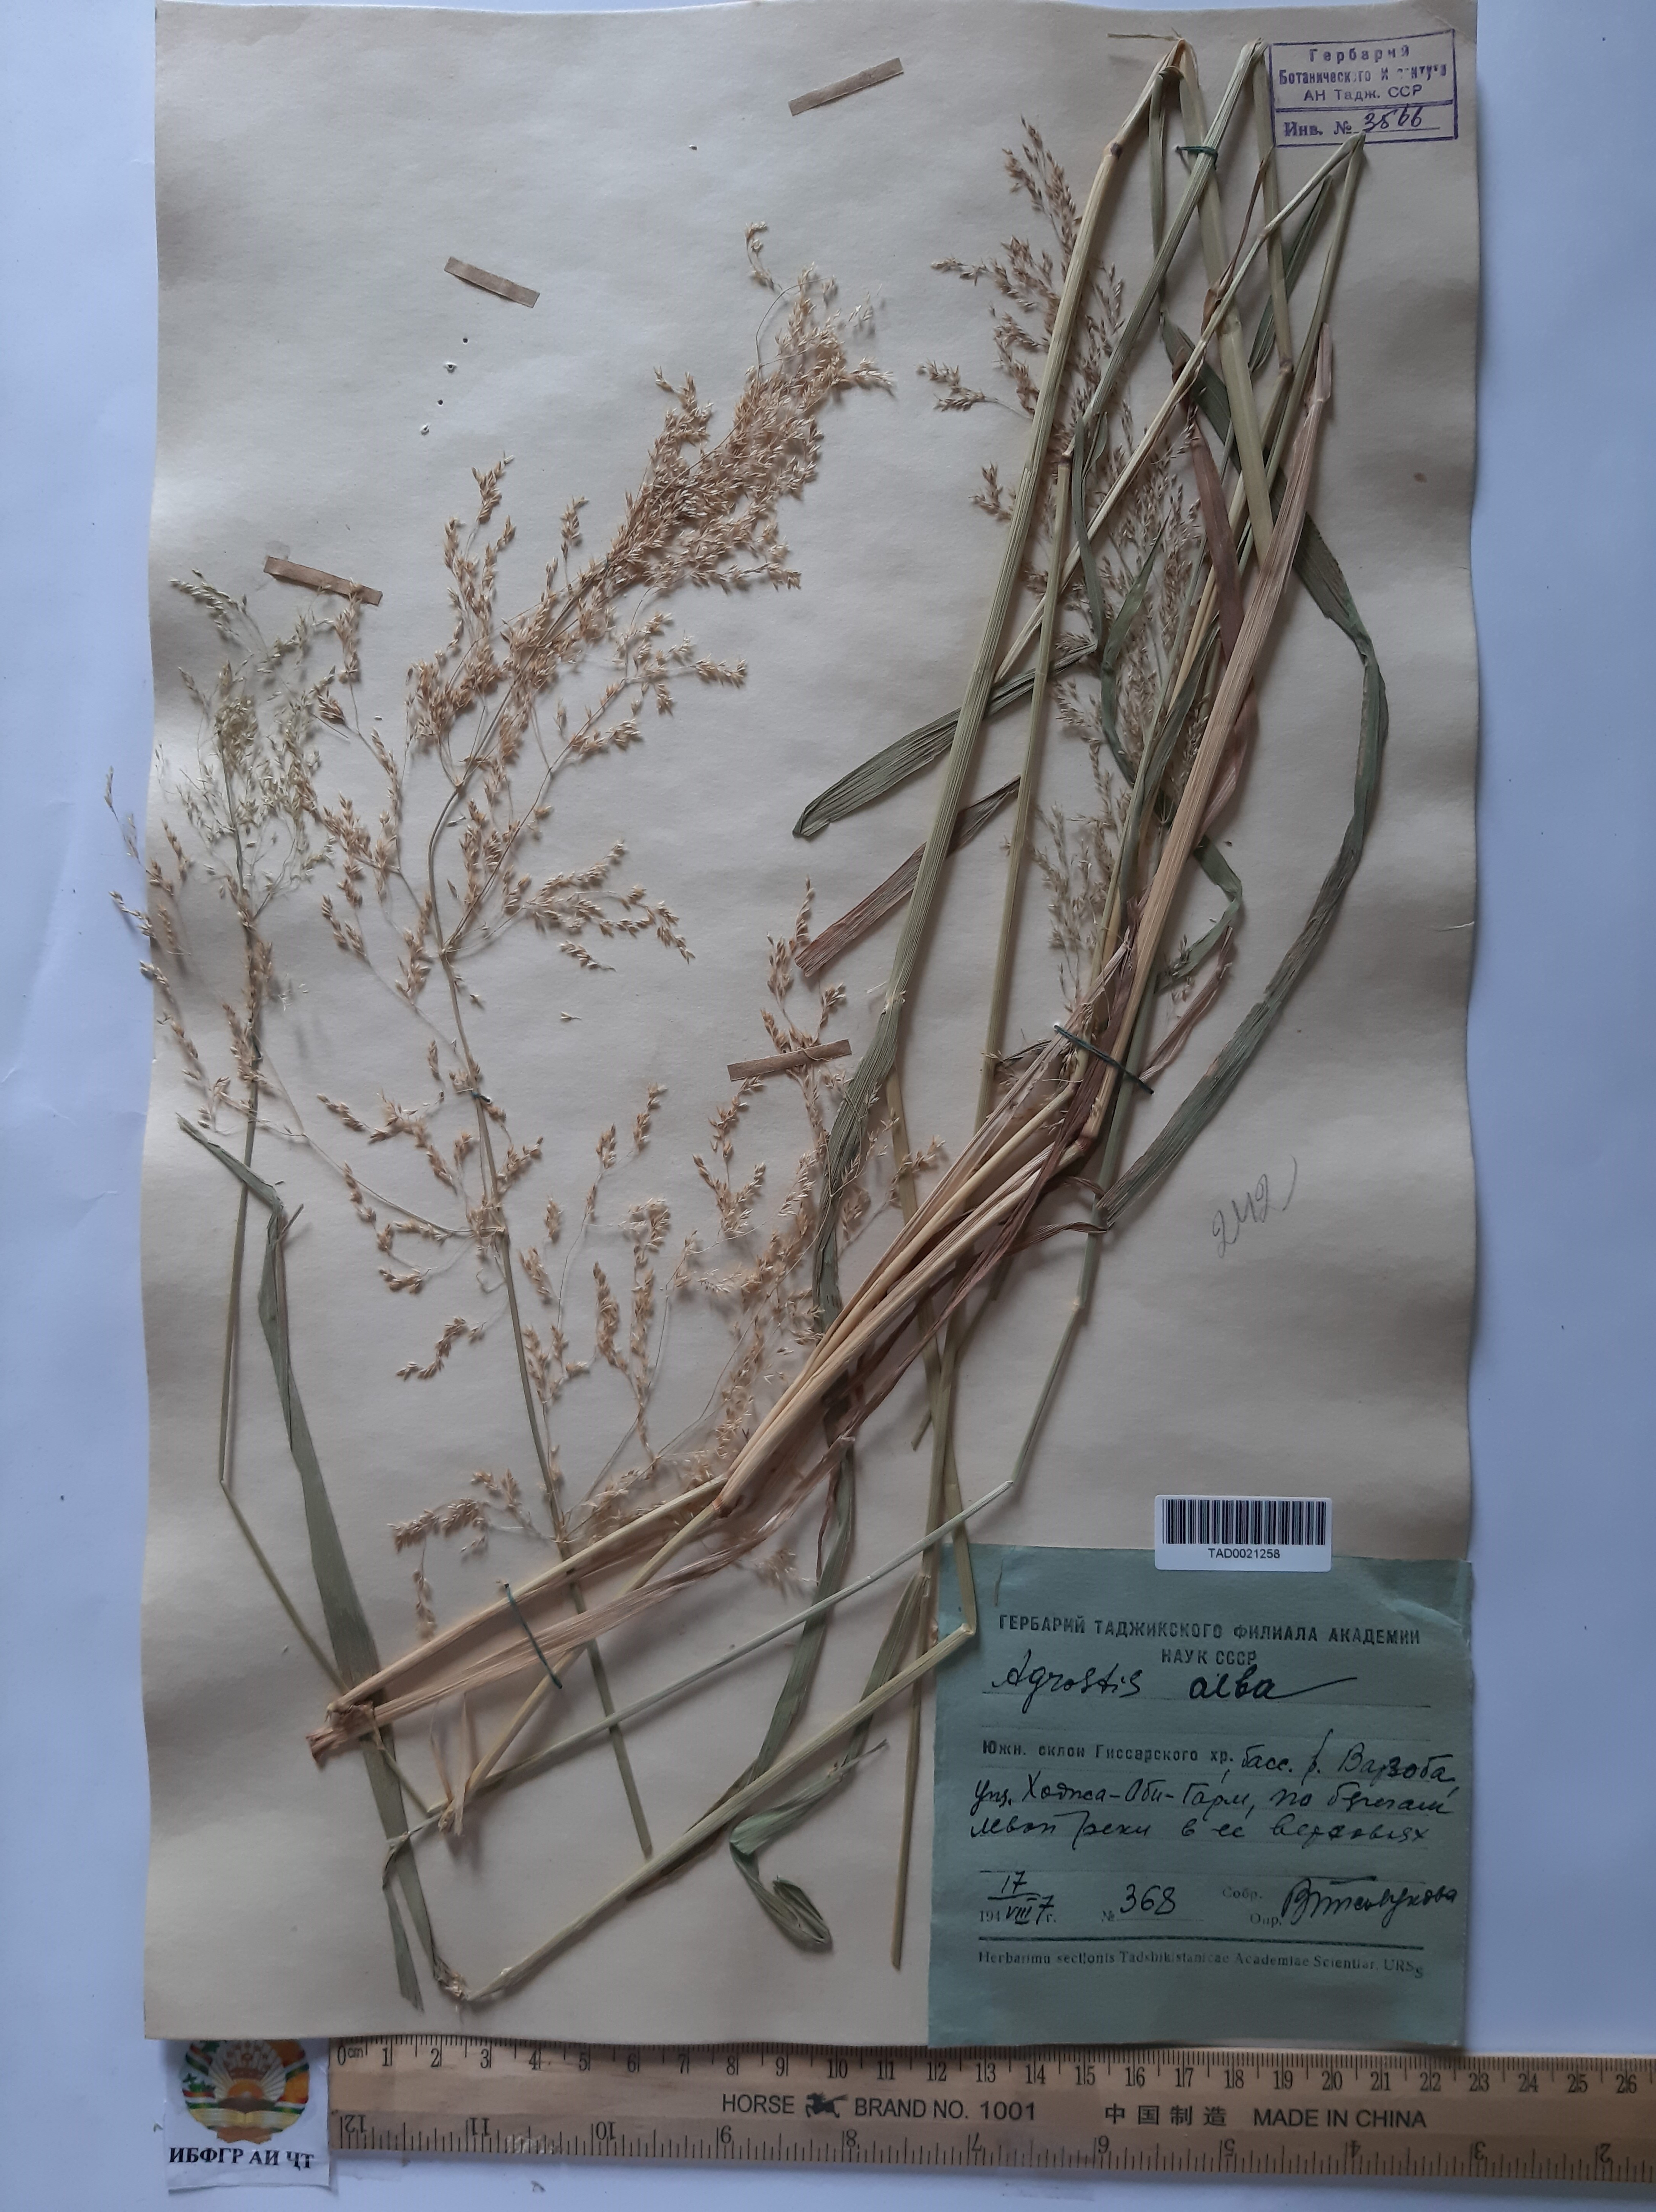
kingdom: Plantae
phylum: Tracheophyta
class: Liliopsida
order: Poales
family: Poaceae
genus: Agrostis
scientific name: Agrostis canina
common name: Velvet bent
